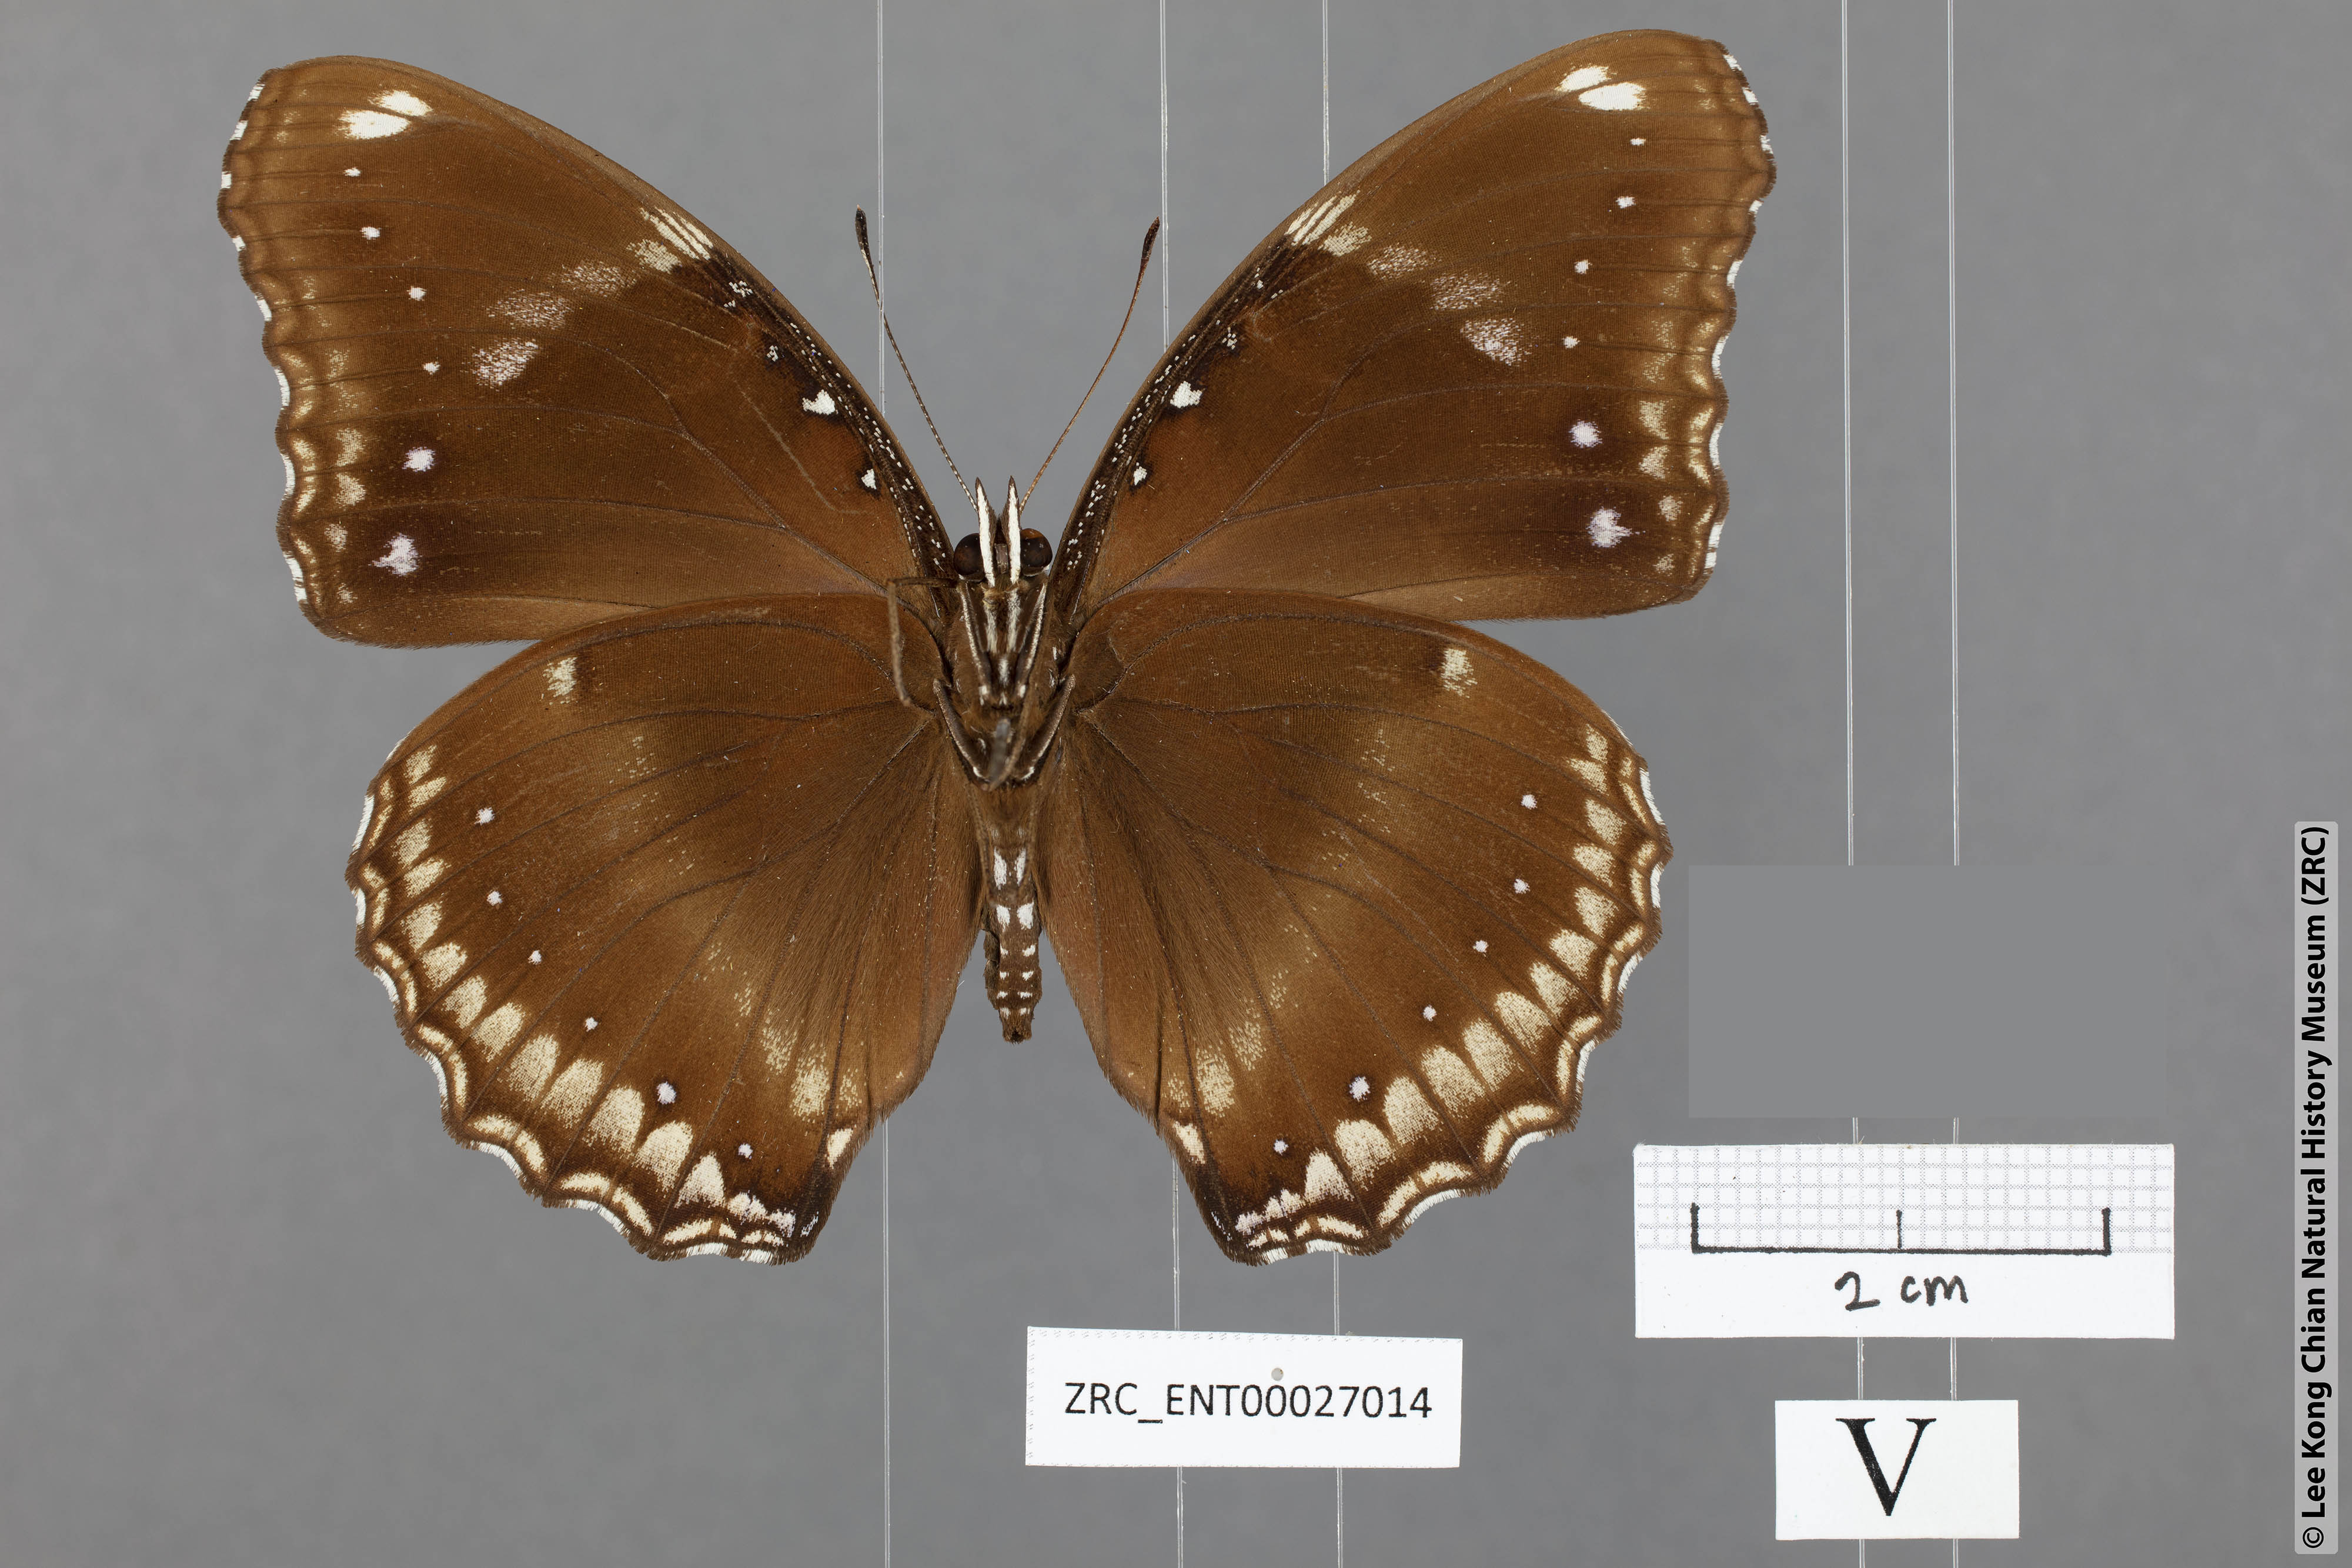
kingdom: Animalia
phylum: Arthropoda
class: Insecta
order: Lepidoptera
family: Nymphalidae
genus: Hypolimnas
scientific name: Hypolimnas bolina
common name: Great eggfly
